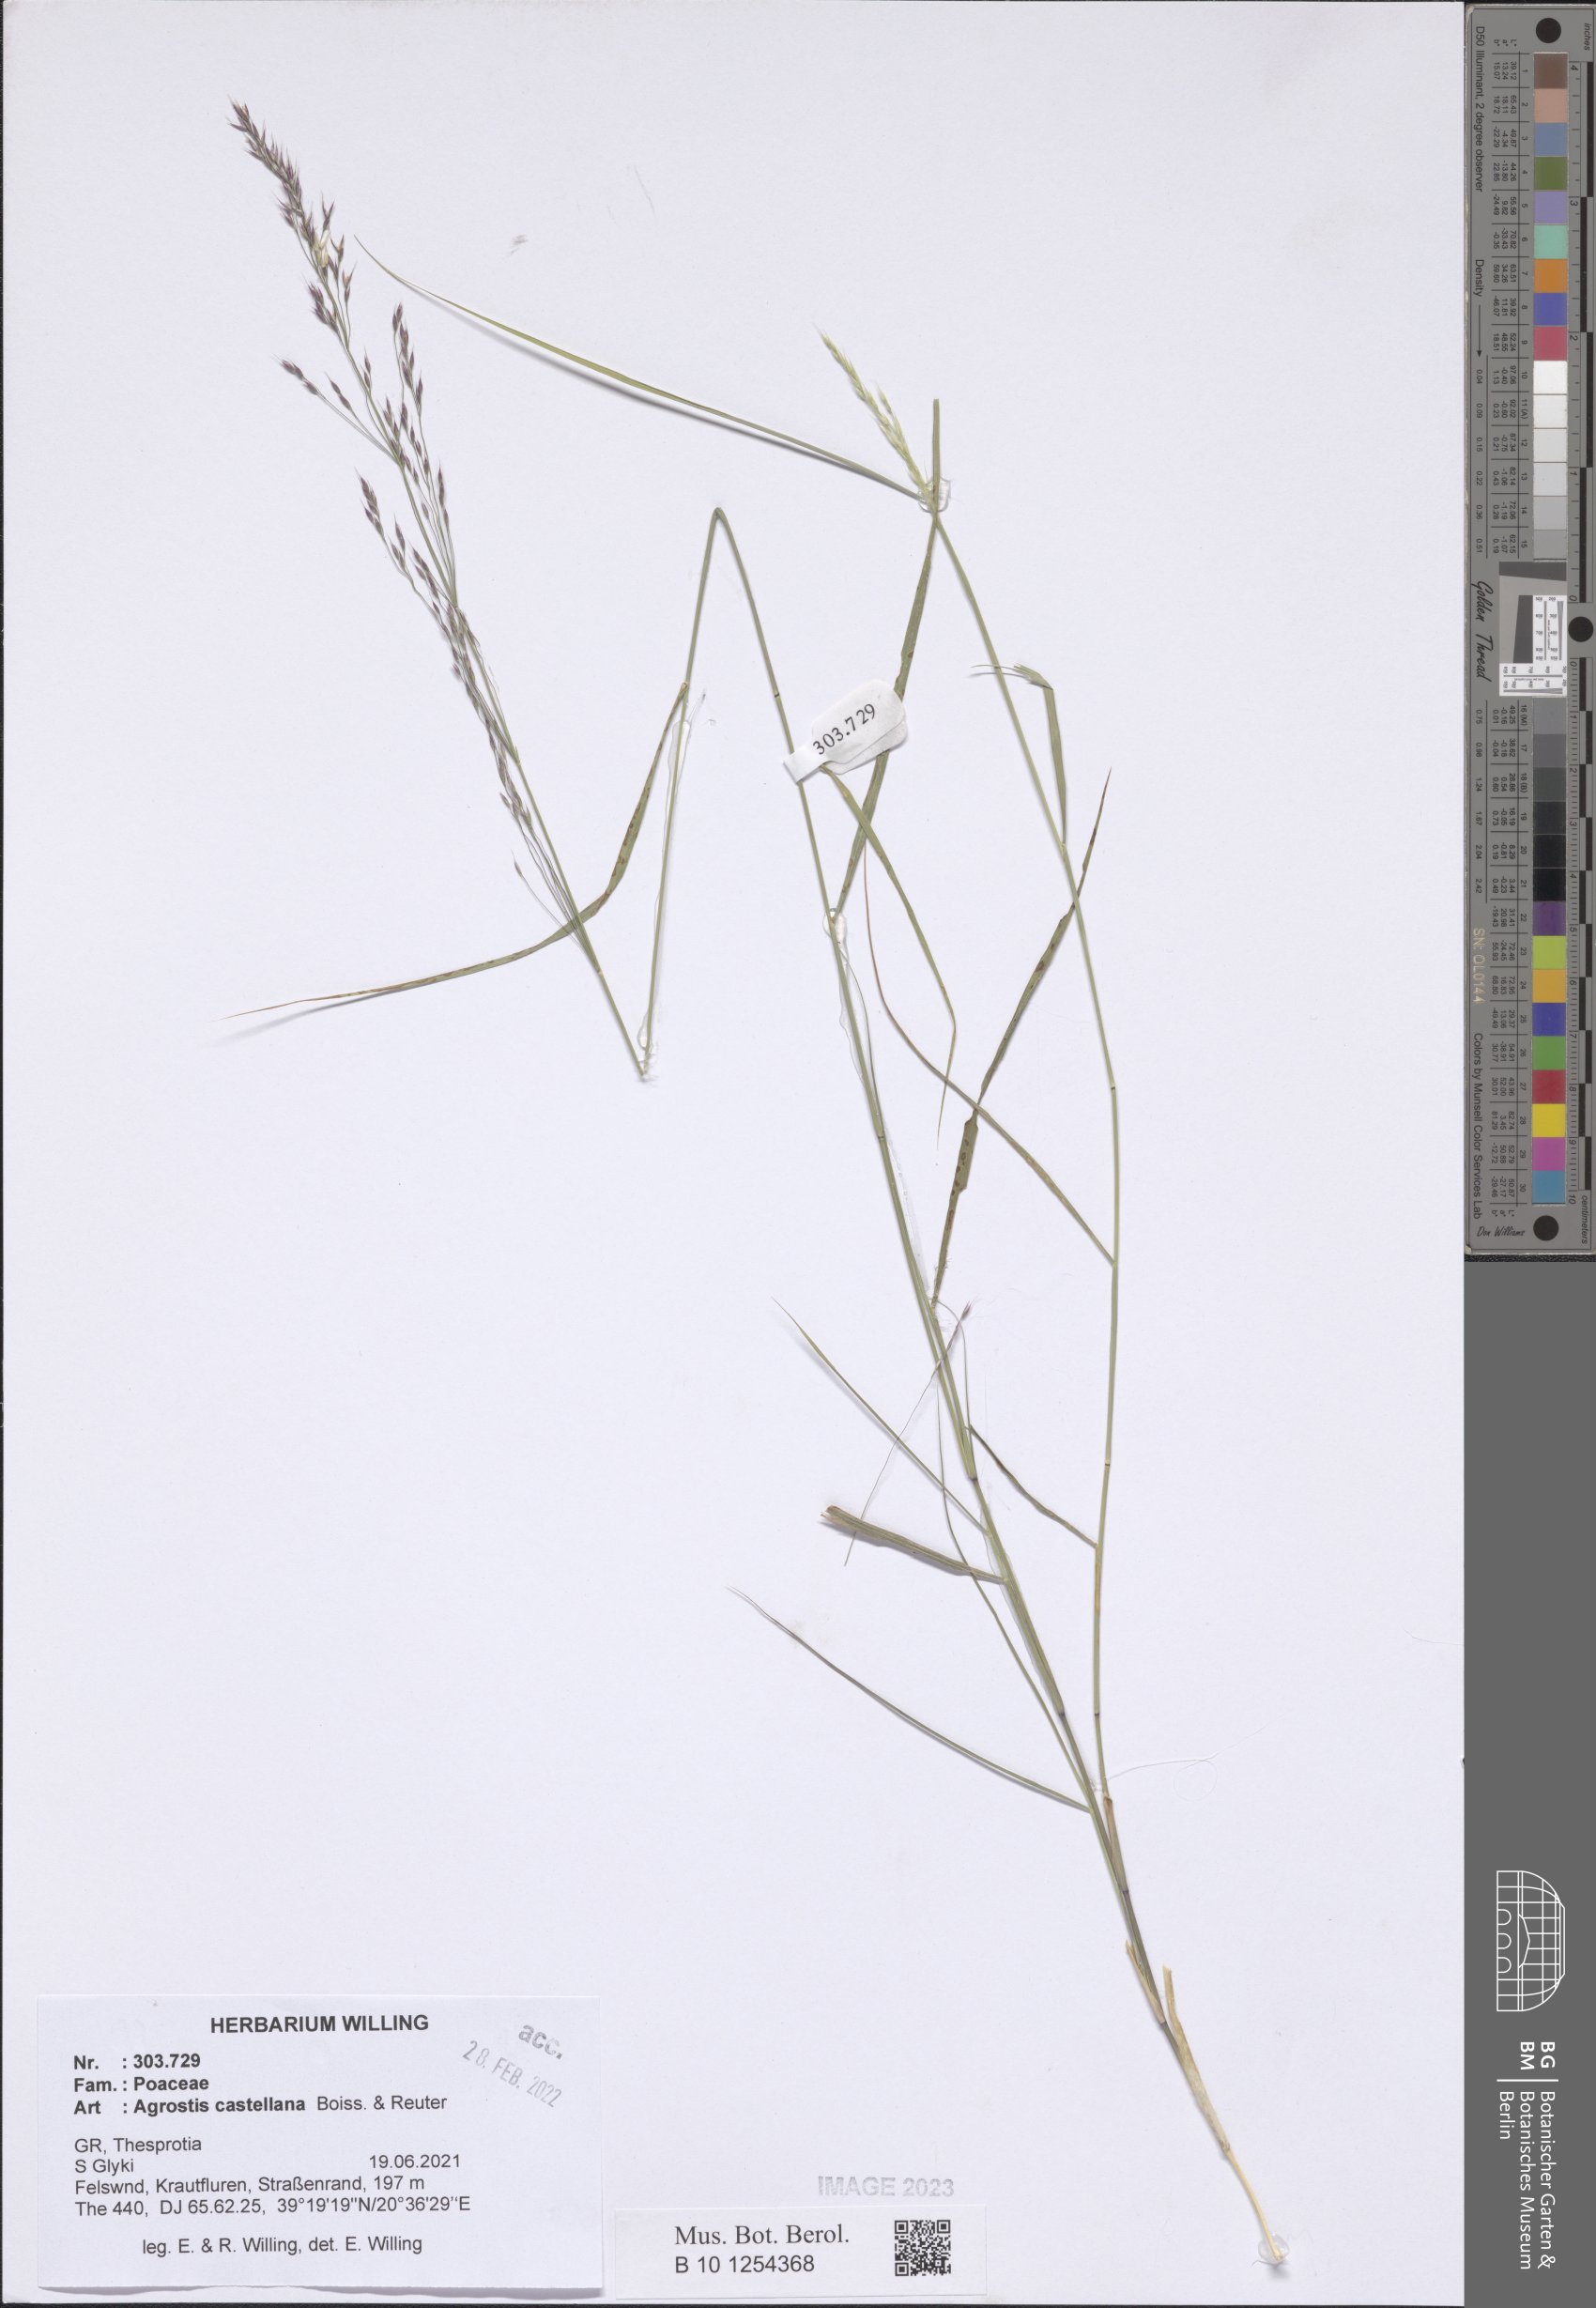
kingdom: Plantae
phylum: Tracheophyta
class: Liliopsida
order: Poales
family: Poaceae
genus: Agrostis
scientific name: Agrostis castellana
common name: Highland bent
